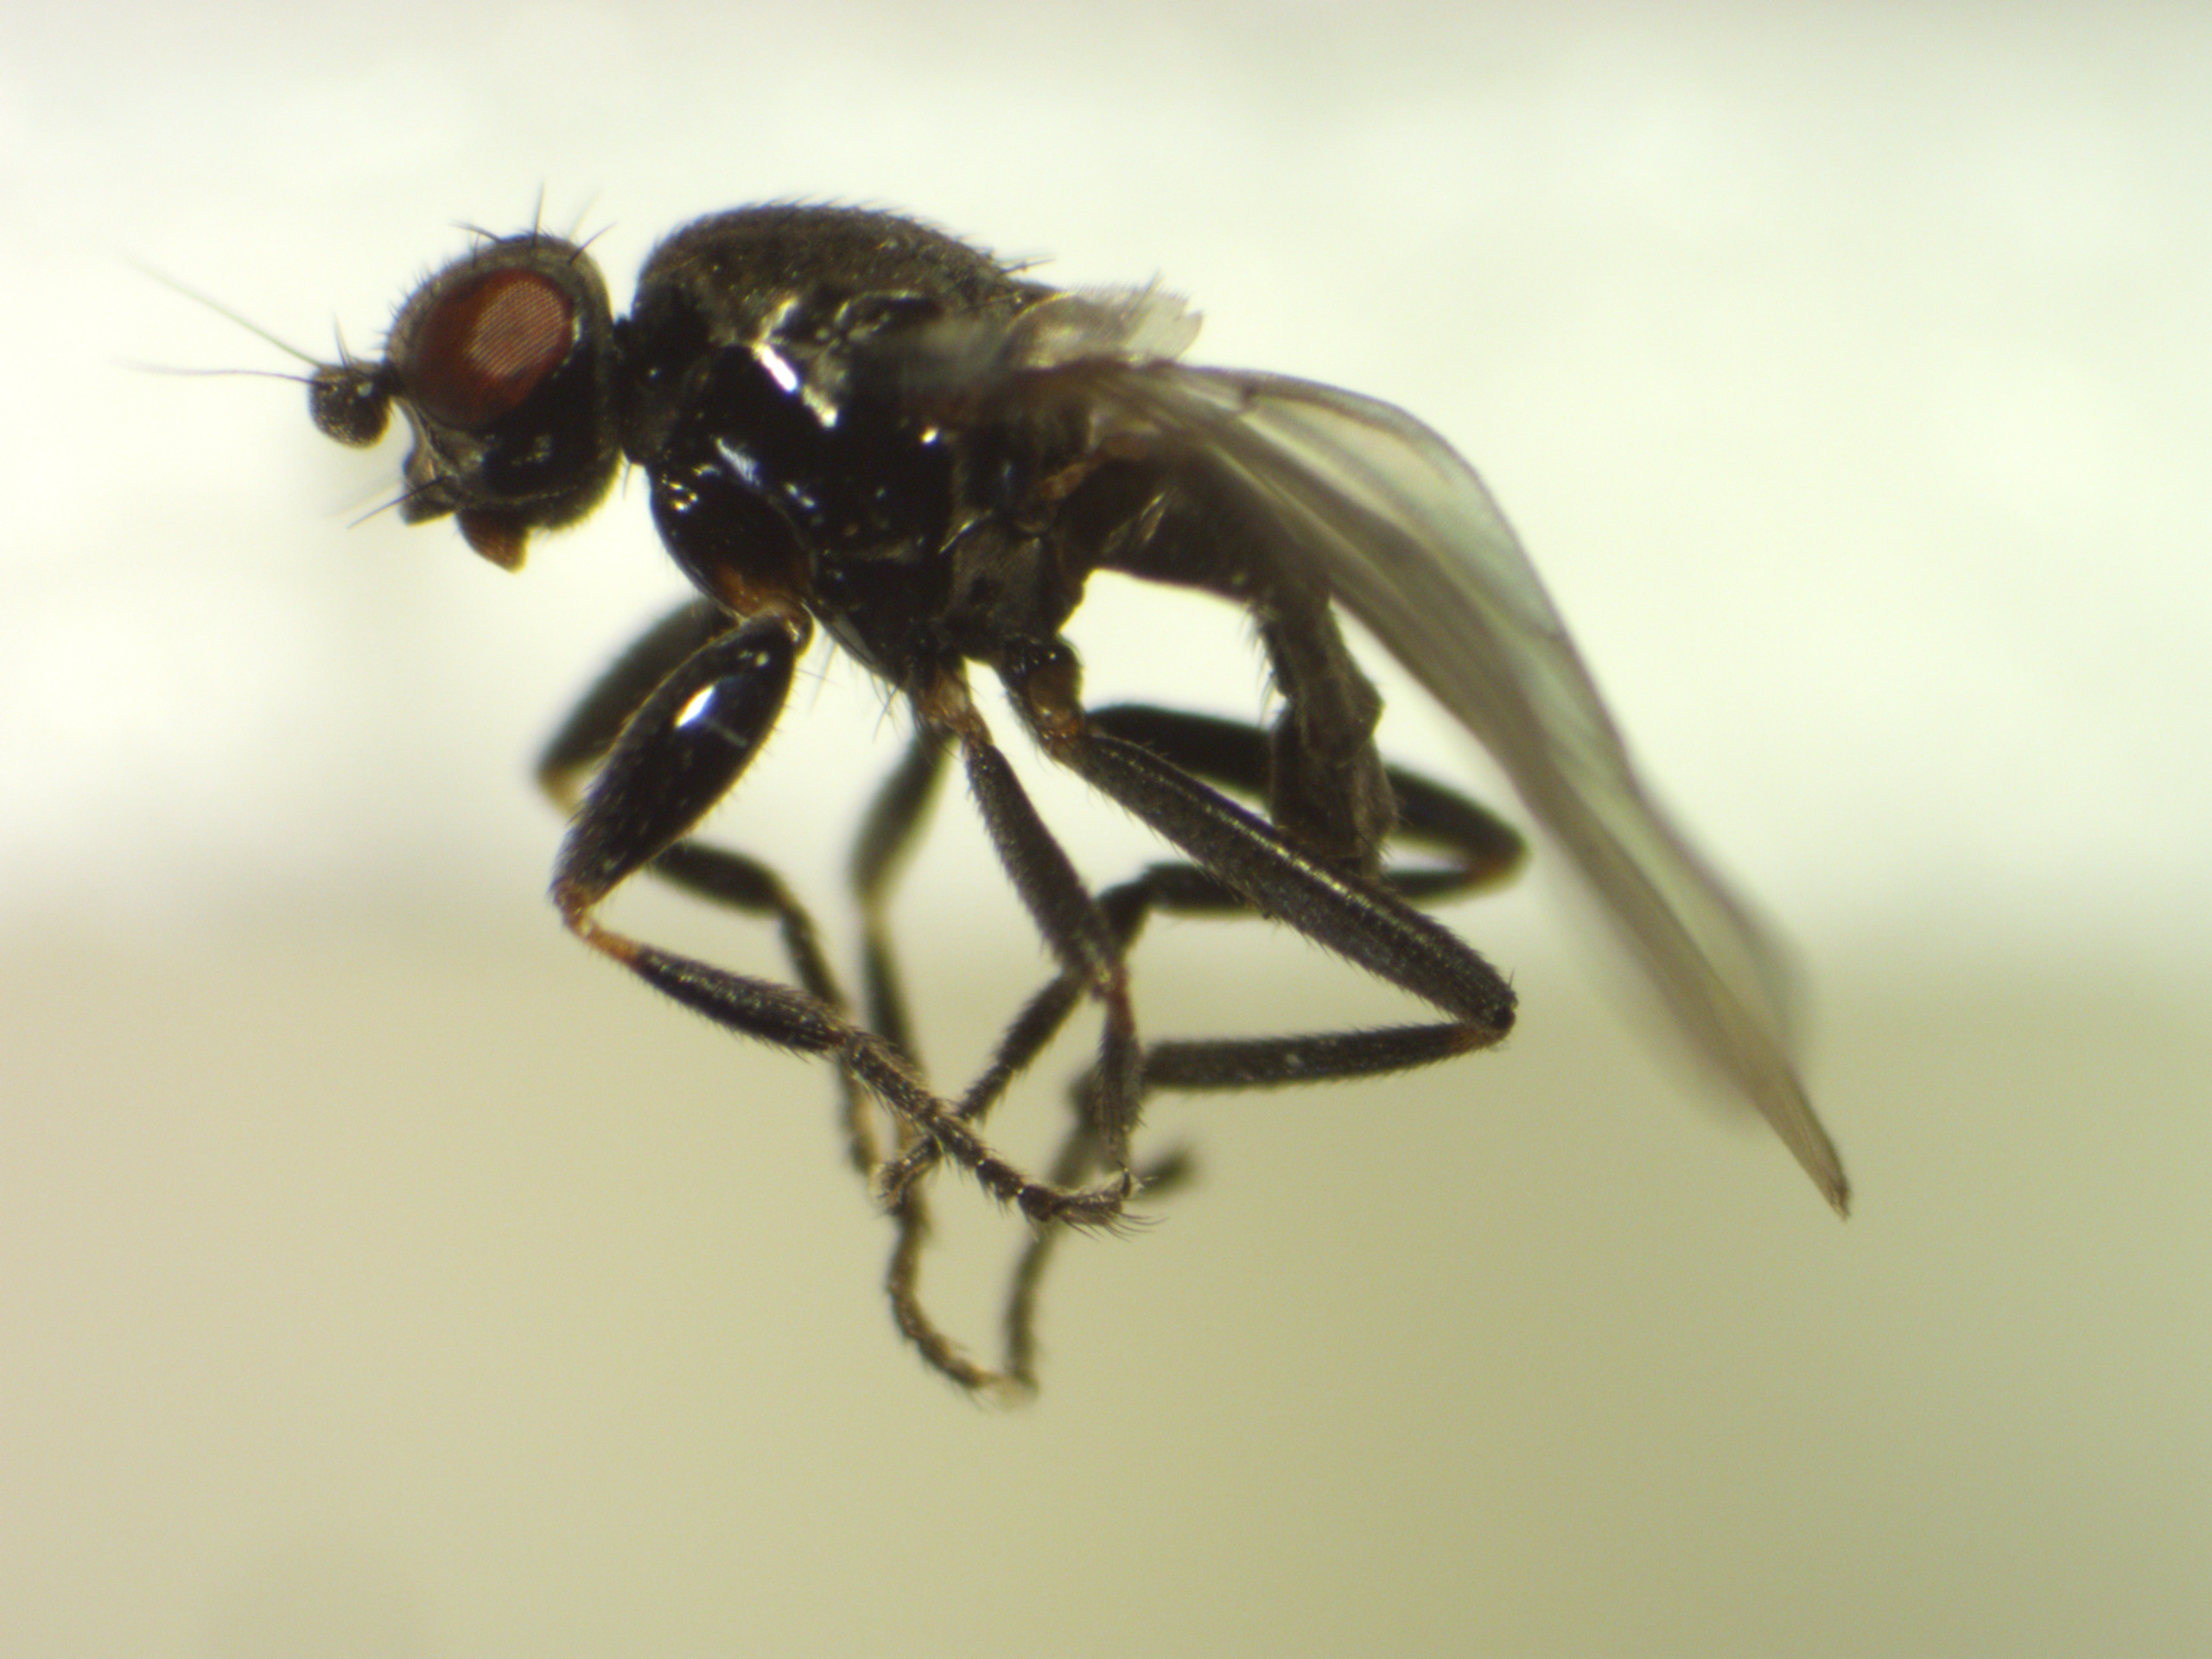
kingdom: Animalia
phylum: Arthropoda
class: Insecta
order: Diptera
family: Sphaeroceridae
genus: Lotophila
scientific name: Lotophila atra
